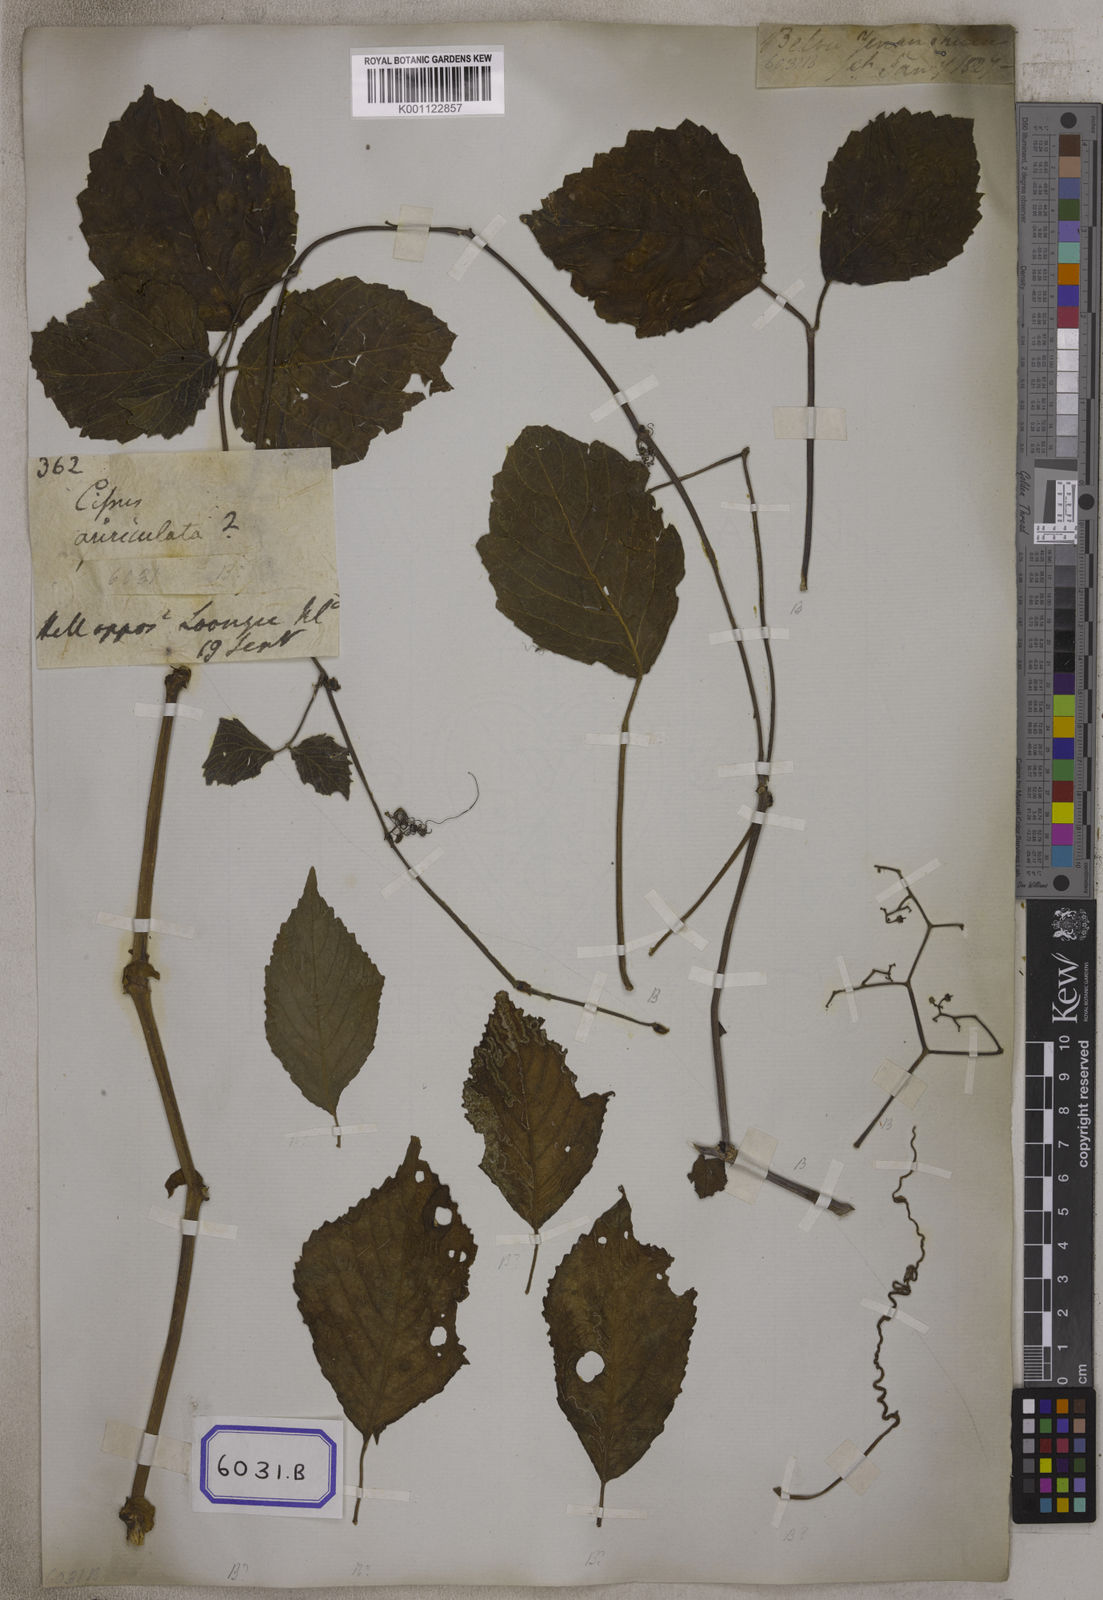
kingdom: Plantae
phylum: Tracheophyta
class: Magnoliopsida
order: Vitales
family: Vitaceae
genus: Cayratia
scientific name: Cayratia auriculata
